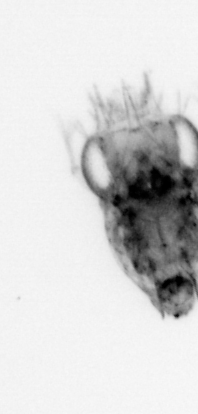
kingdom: Animalia
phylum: Arthropoda
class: Malacostraca
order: Decapoda
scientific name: Decapoda
